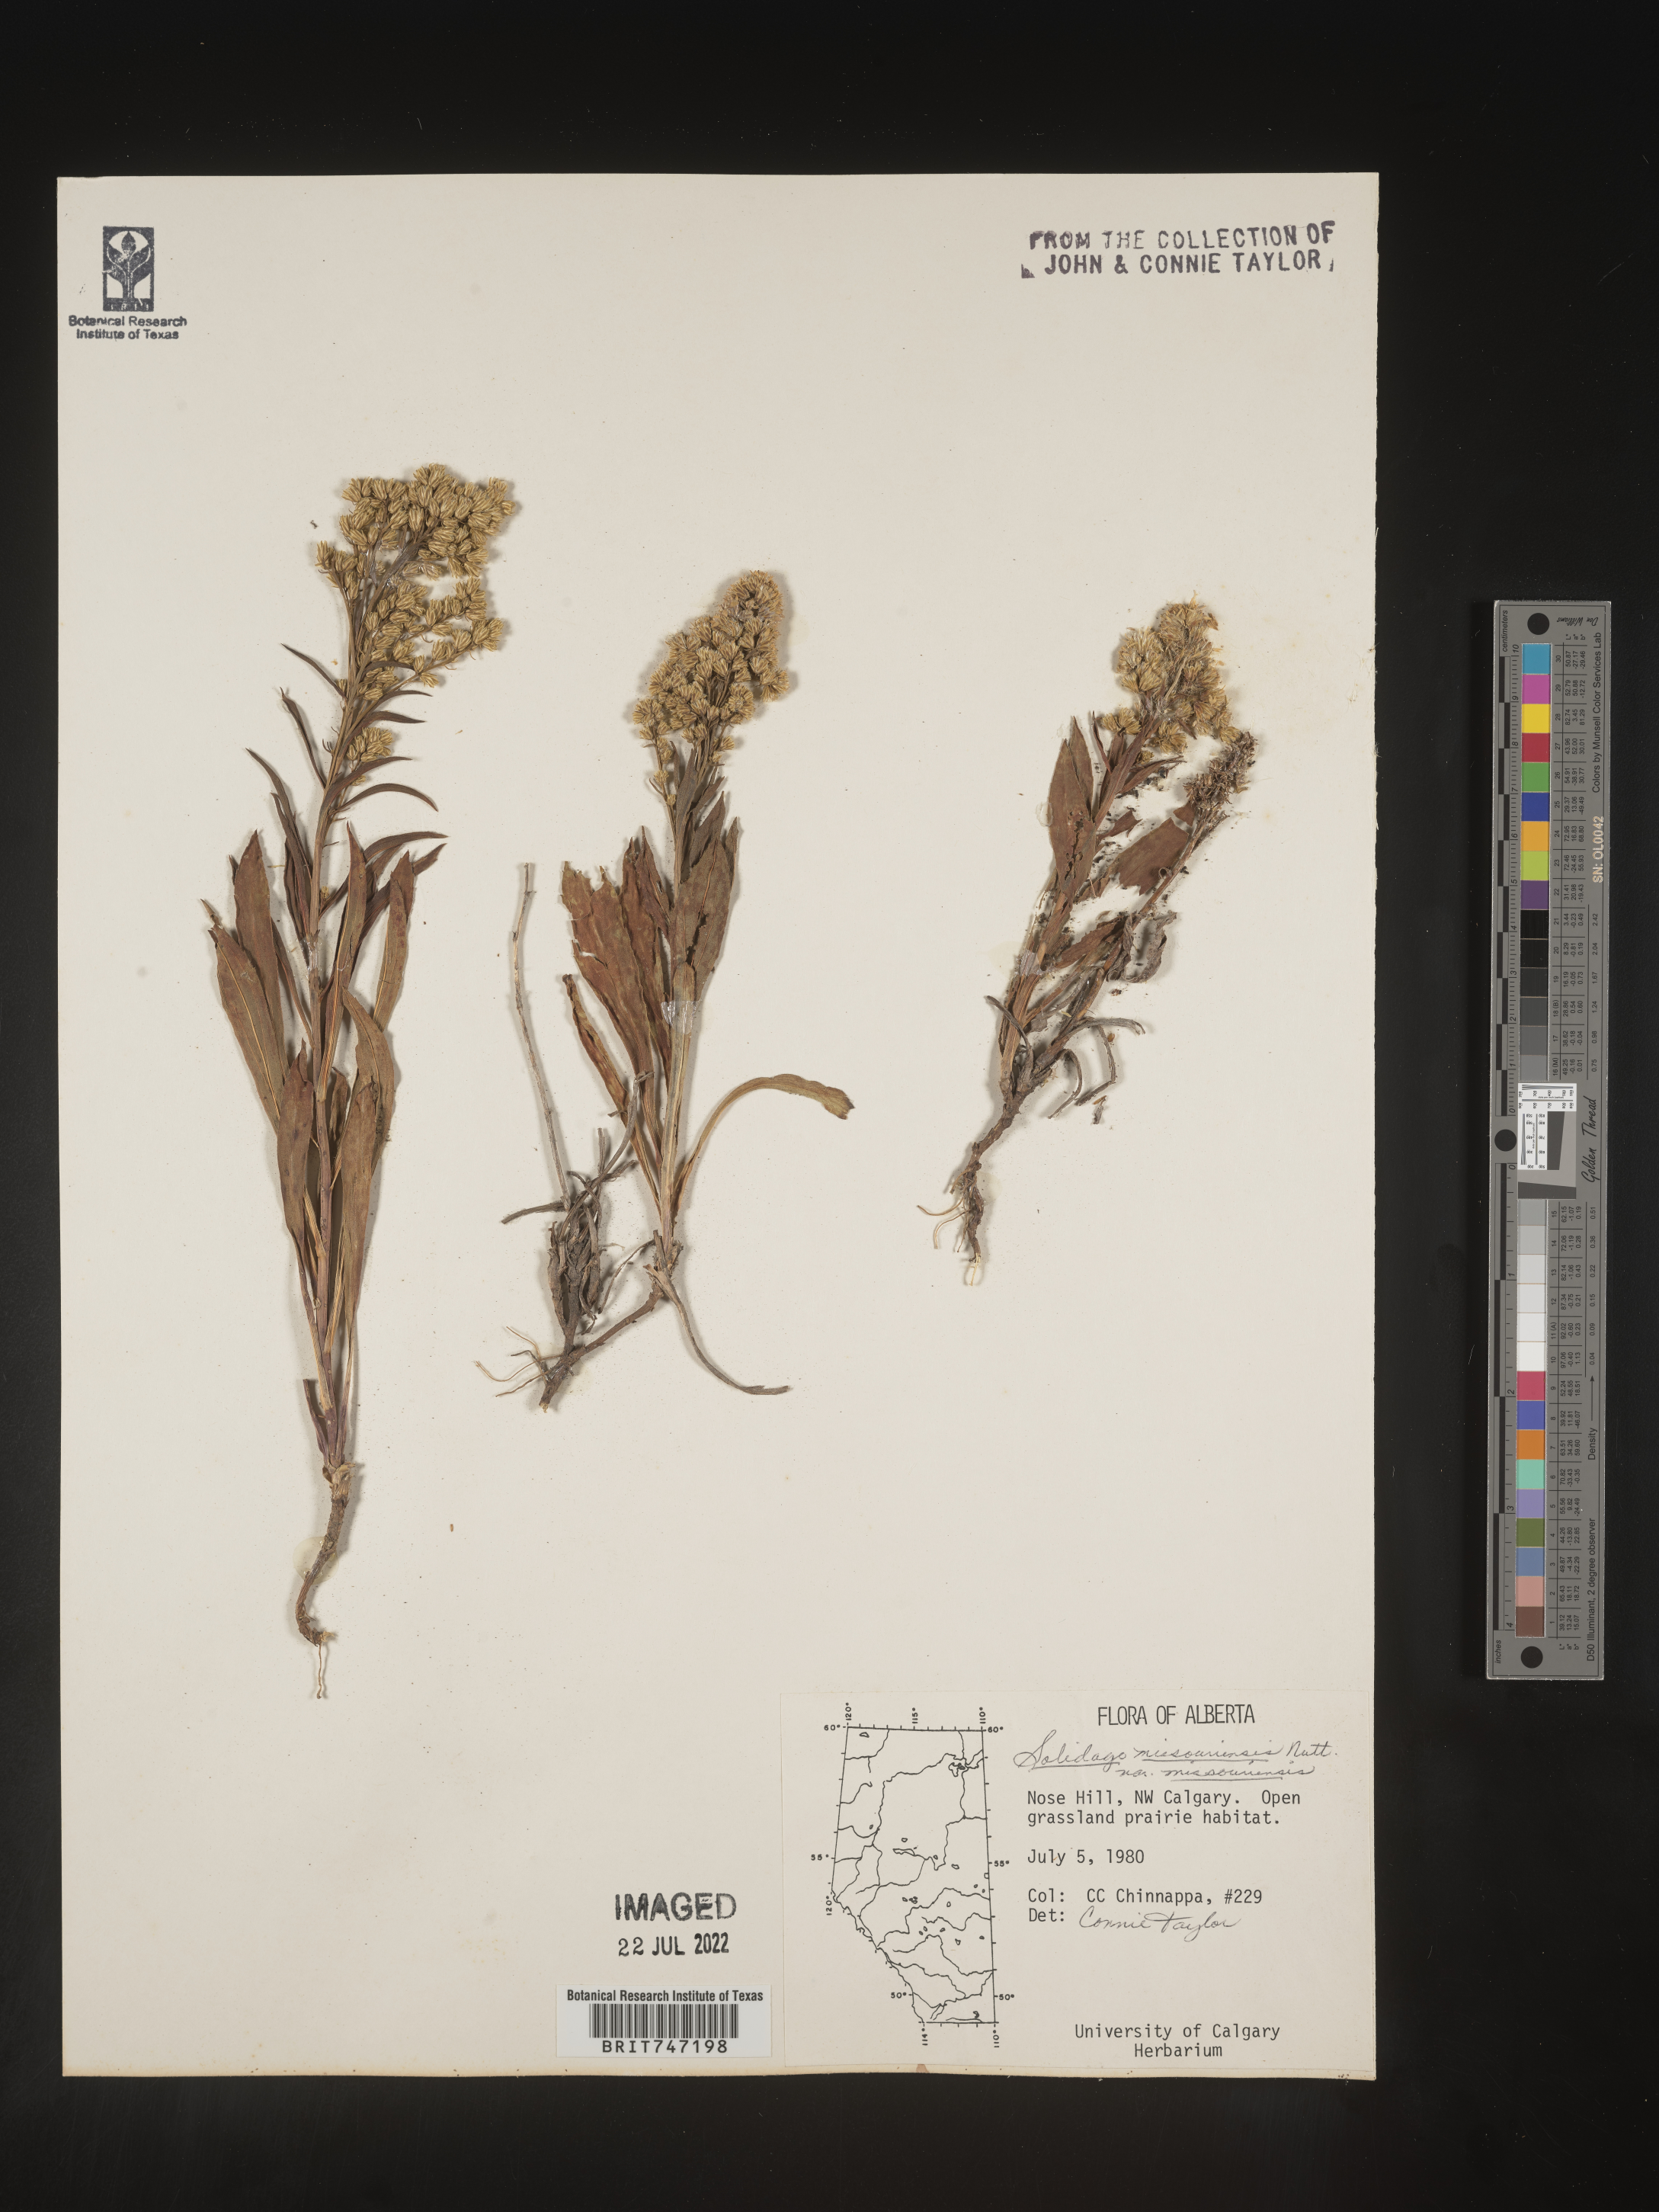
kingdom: Plantae
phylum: Tracheophyta
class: Magnoliopsida
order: Asterales
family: Asteraceae
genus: Solidago
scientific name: Solidago missouriensis
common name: Prairie goldenrod
